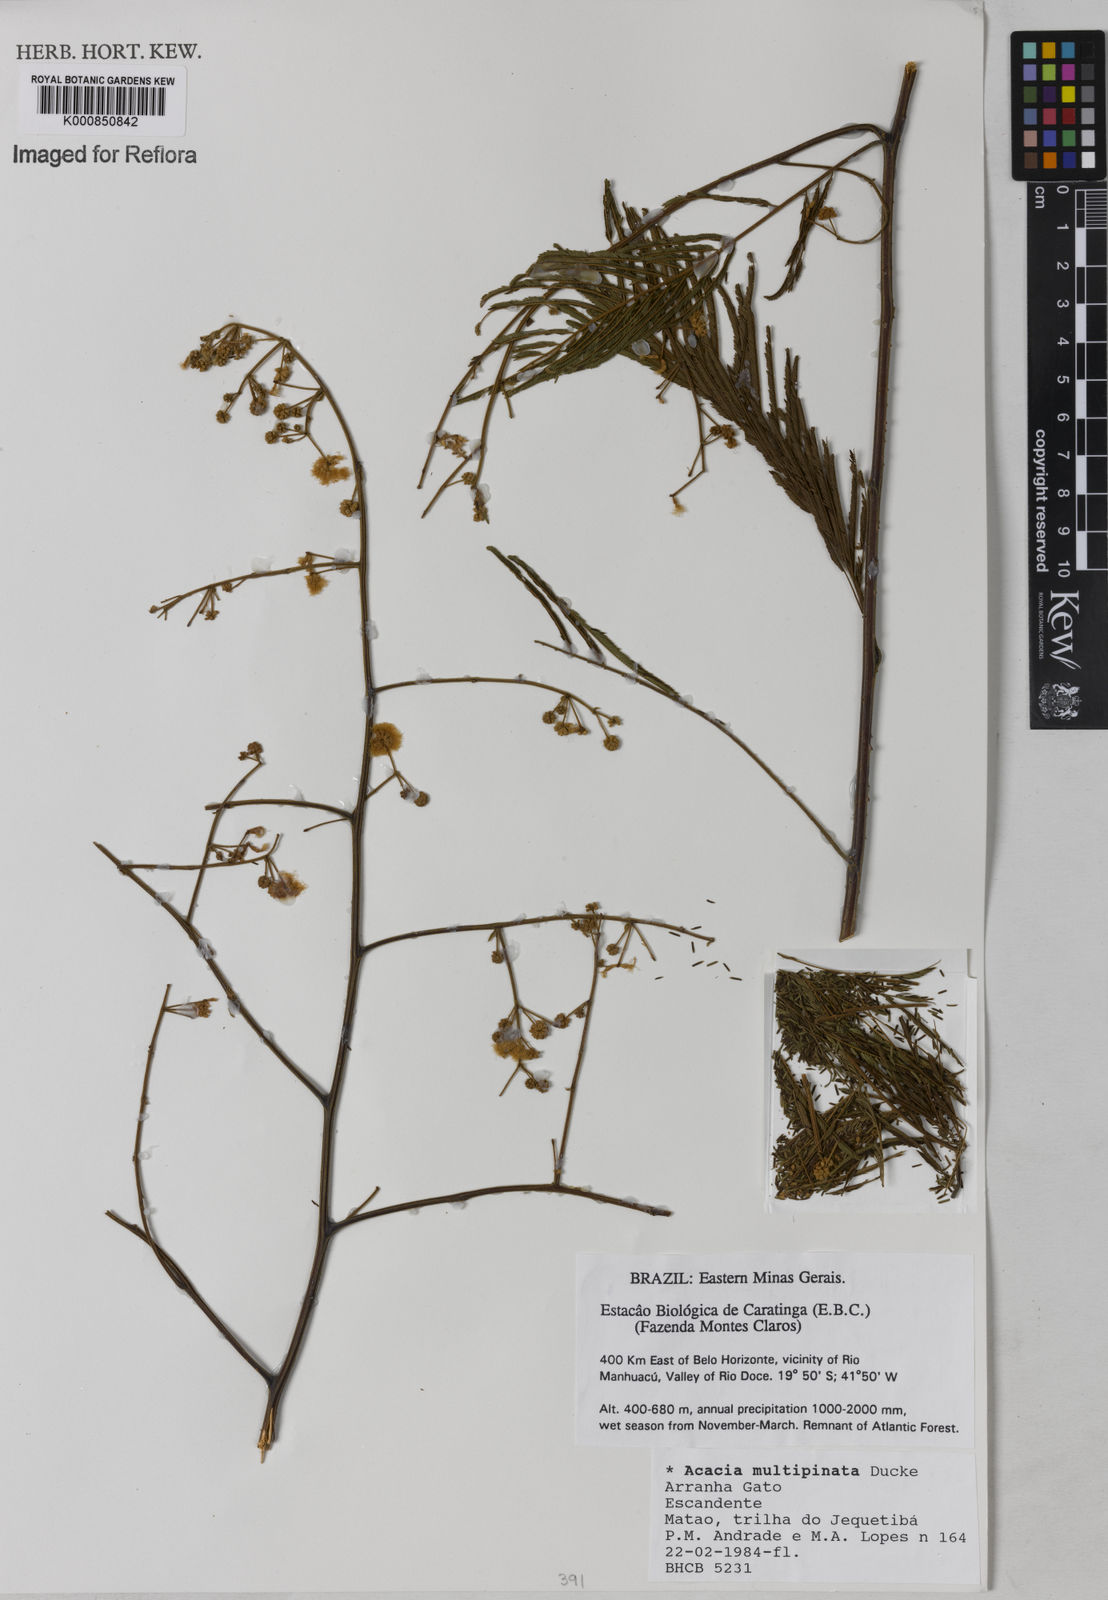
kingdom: Plantae
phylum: Tracheophyta
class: Magnoliopsida
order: Fabales
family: Fabaceae
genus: Senegalia
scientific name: Senegalia paniculata
